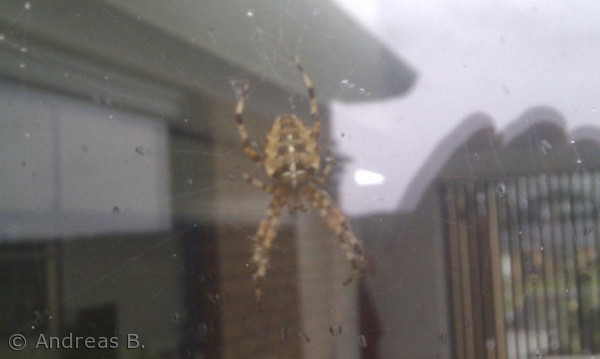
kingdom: Animalia
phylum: Arthropoda
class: Arachnida
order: Araneae
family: Araneidae
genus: Araneus
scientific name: Araneus diadematus
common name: Korsedderkop
